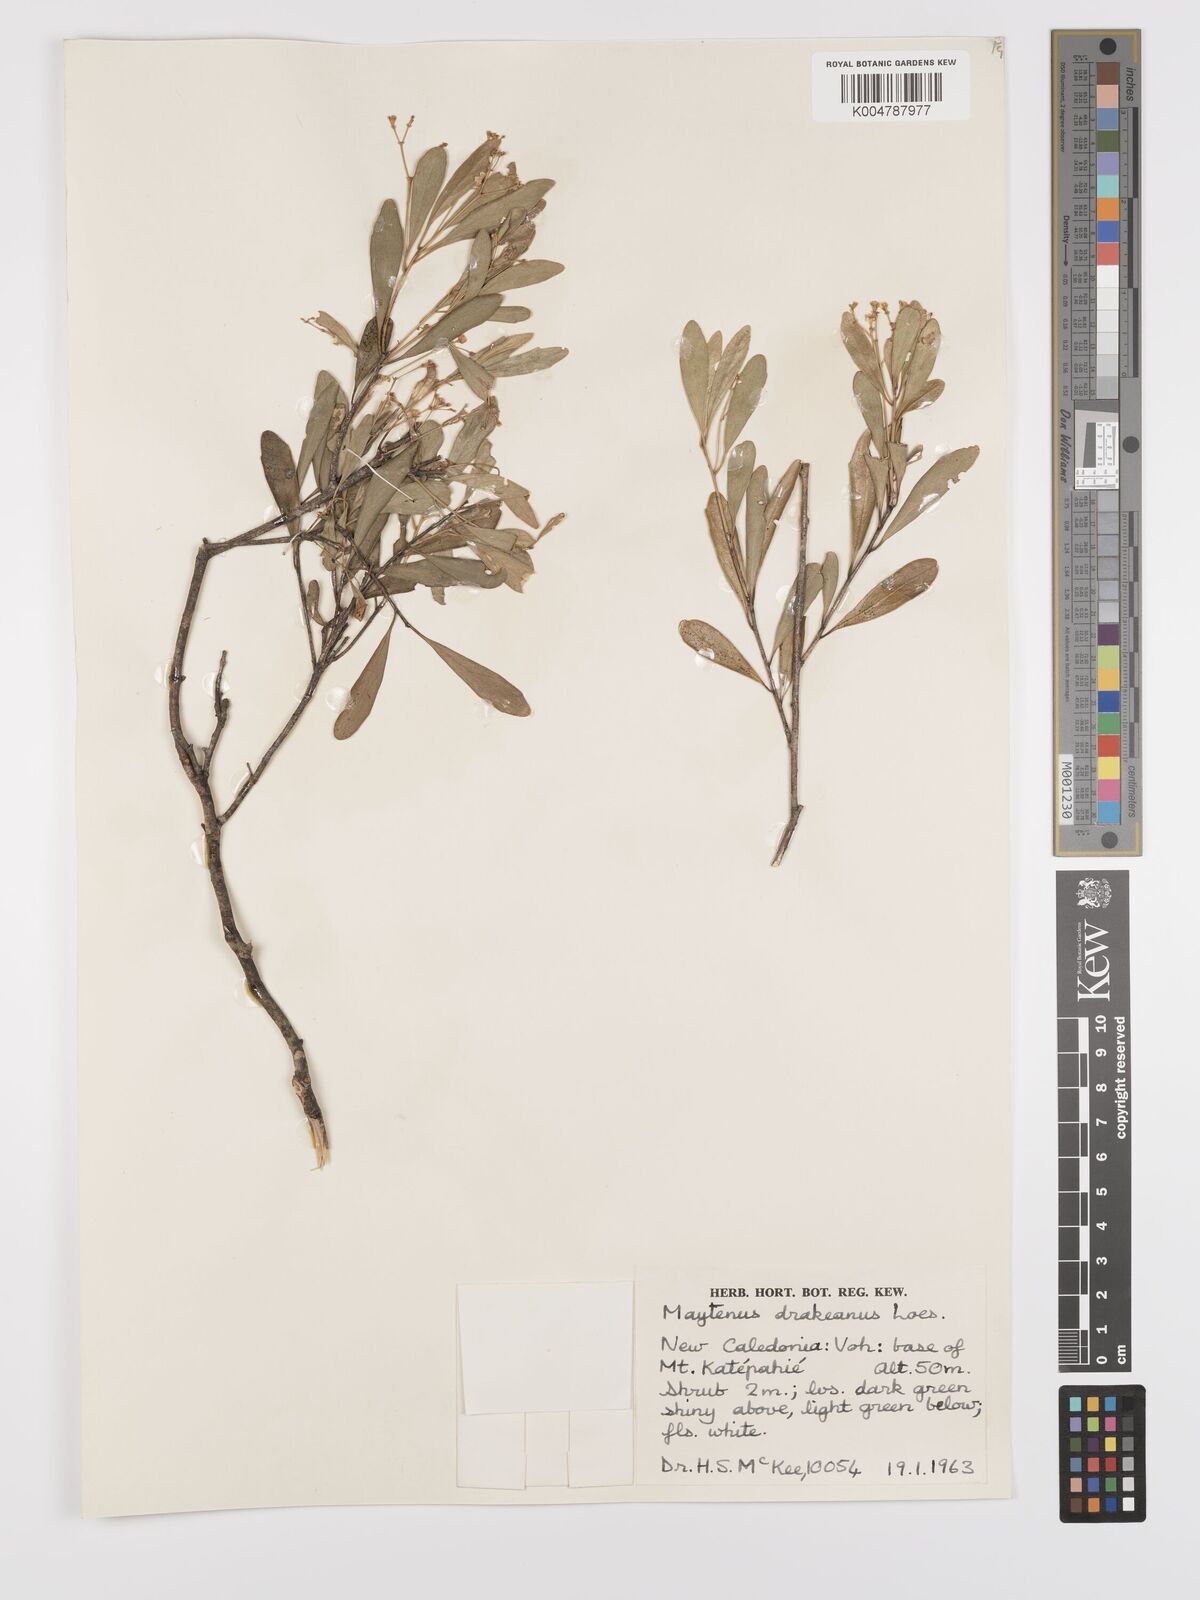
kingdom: Plantae
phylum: Tracheophyta
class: Magnoliopsida
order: Celastrales
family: Celastraceae
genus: Denhamia
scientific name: Denhamia fournieri
